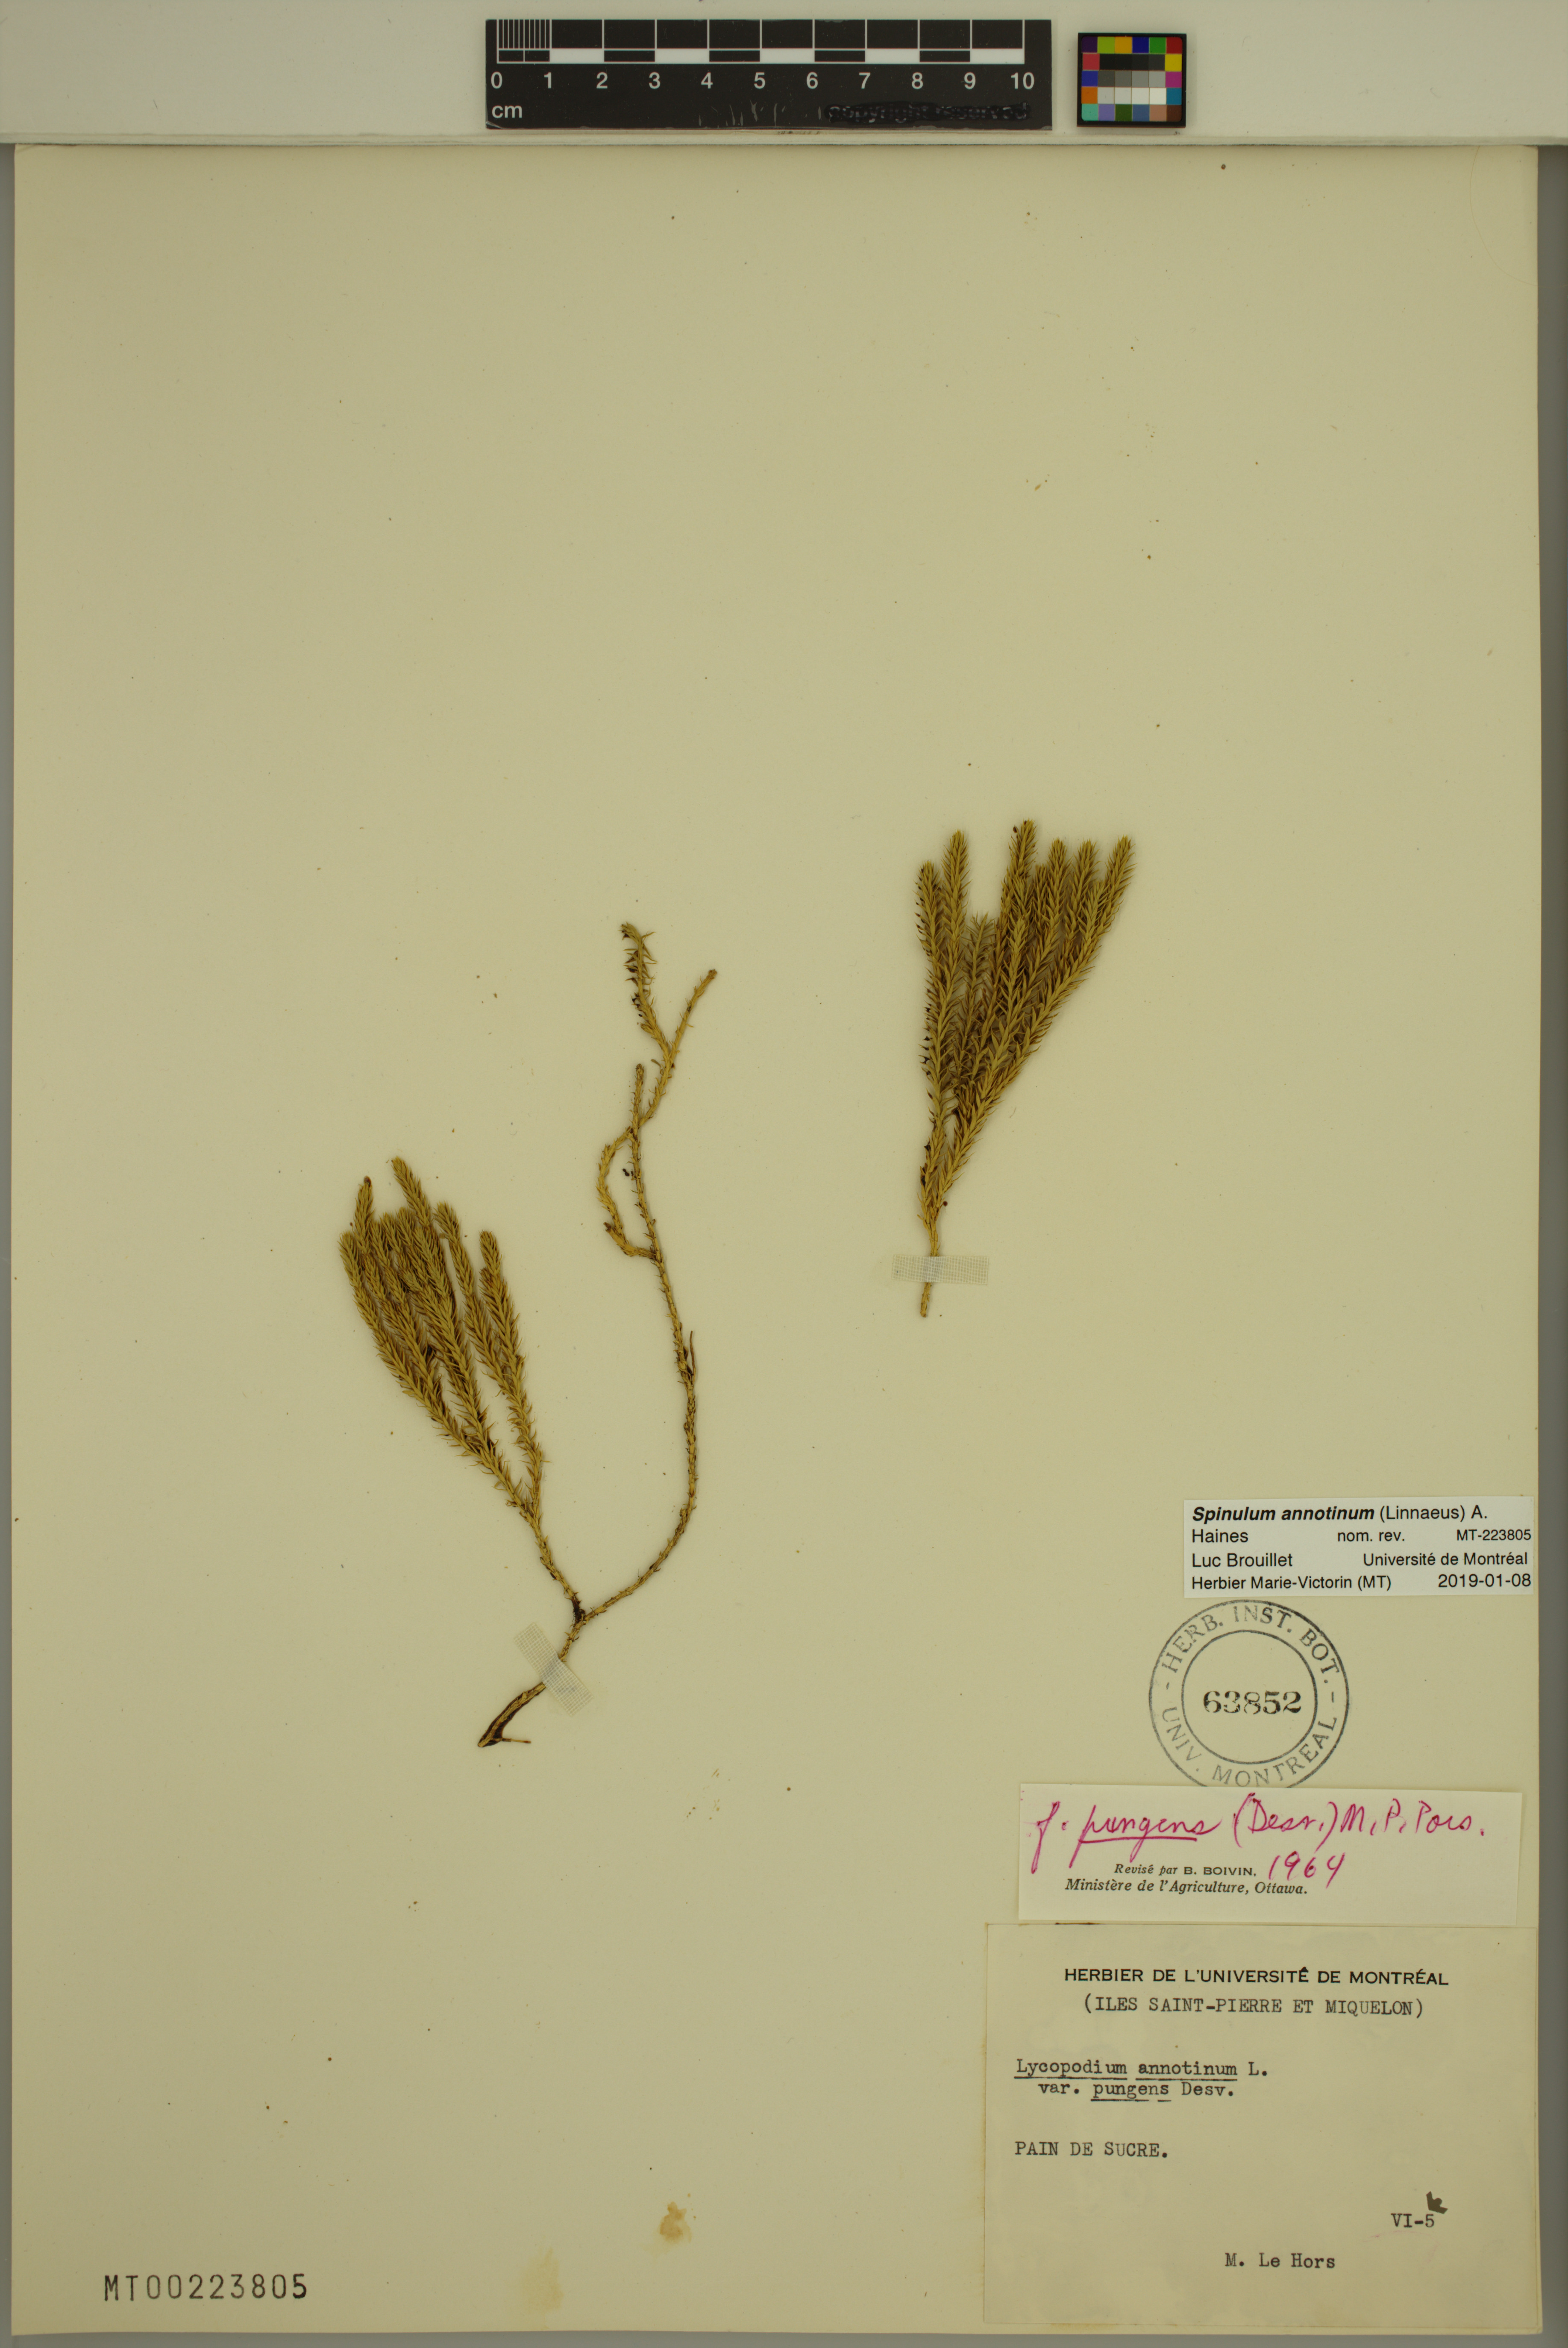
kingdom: Plantae
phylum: Tracheophyta
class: Lycopodiopsida
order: Lycopodiales
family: Lycopodiaceae
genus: Spinulum
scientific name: Spinulum annotinum
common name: Interrupted club-moss
